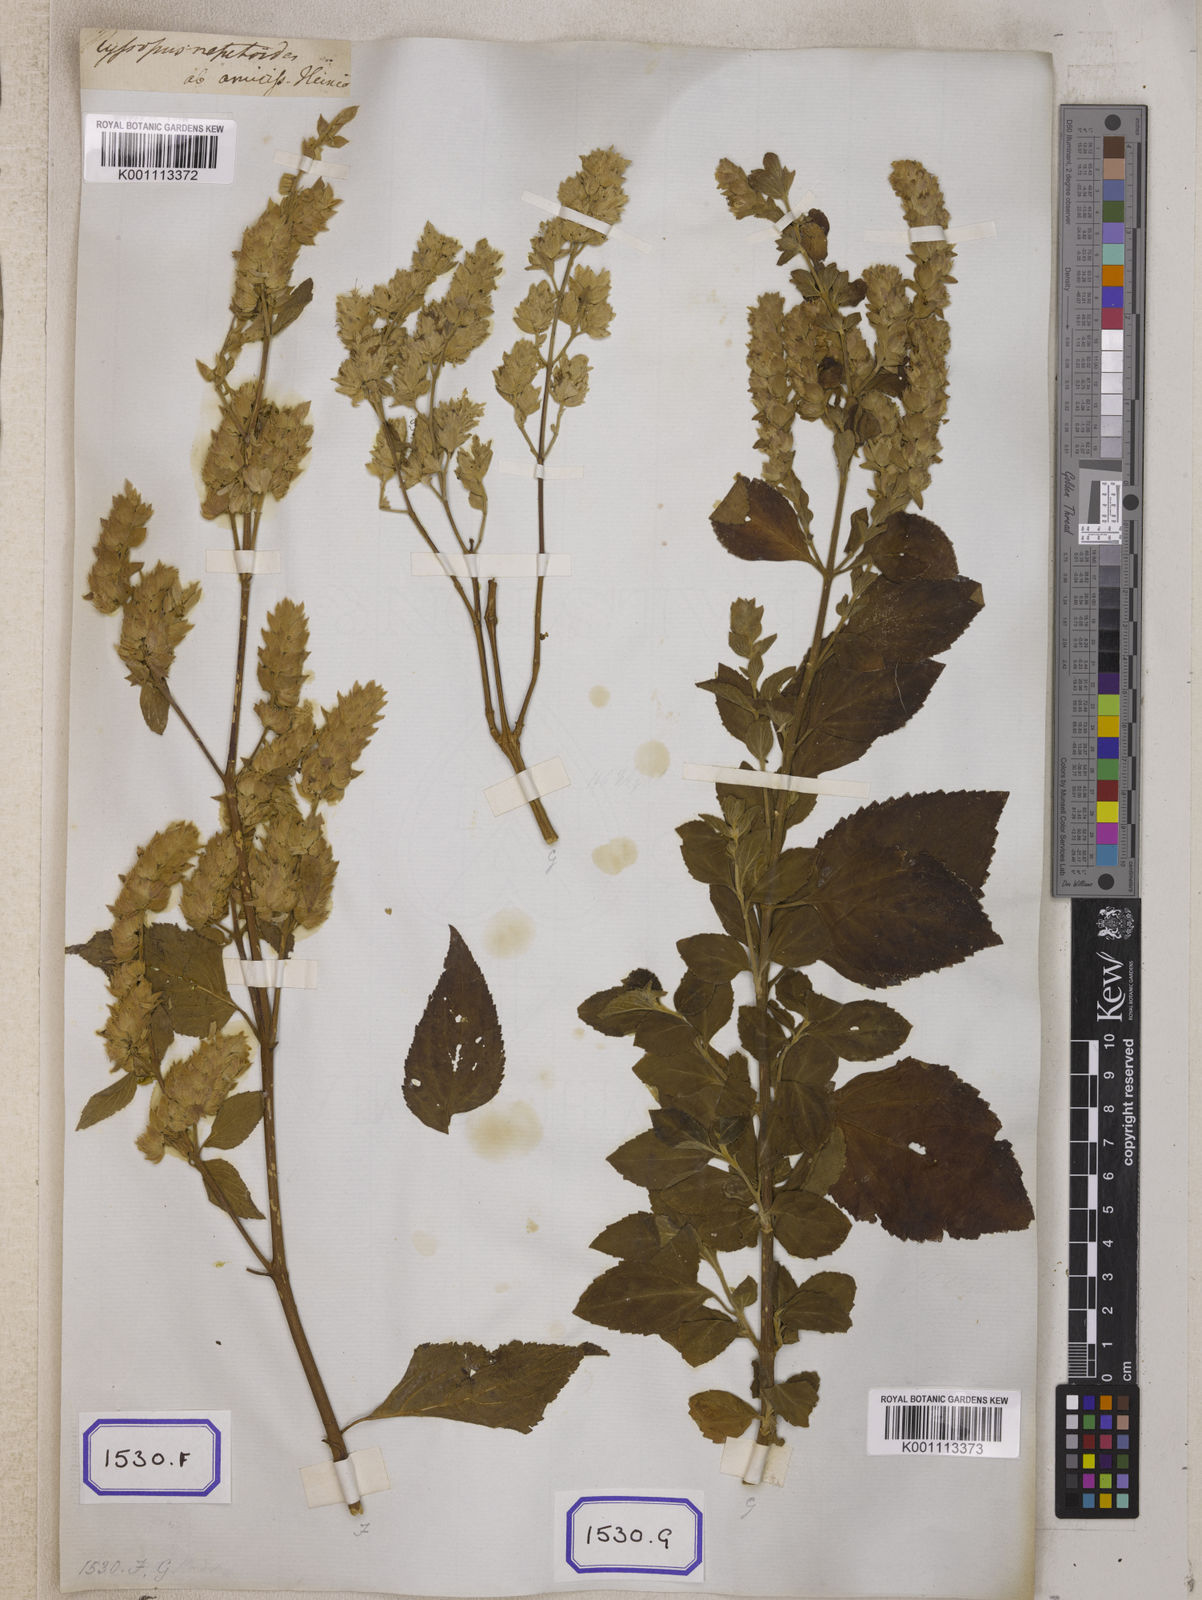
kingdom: Plantae
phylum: Tracheophyta
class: Magnoliopsida
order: Lamiales
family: Lamiaceae
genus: Pogostemon
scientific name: Pogostemon
